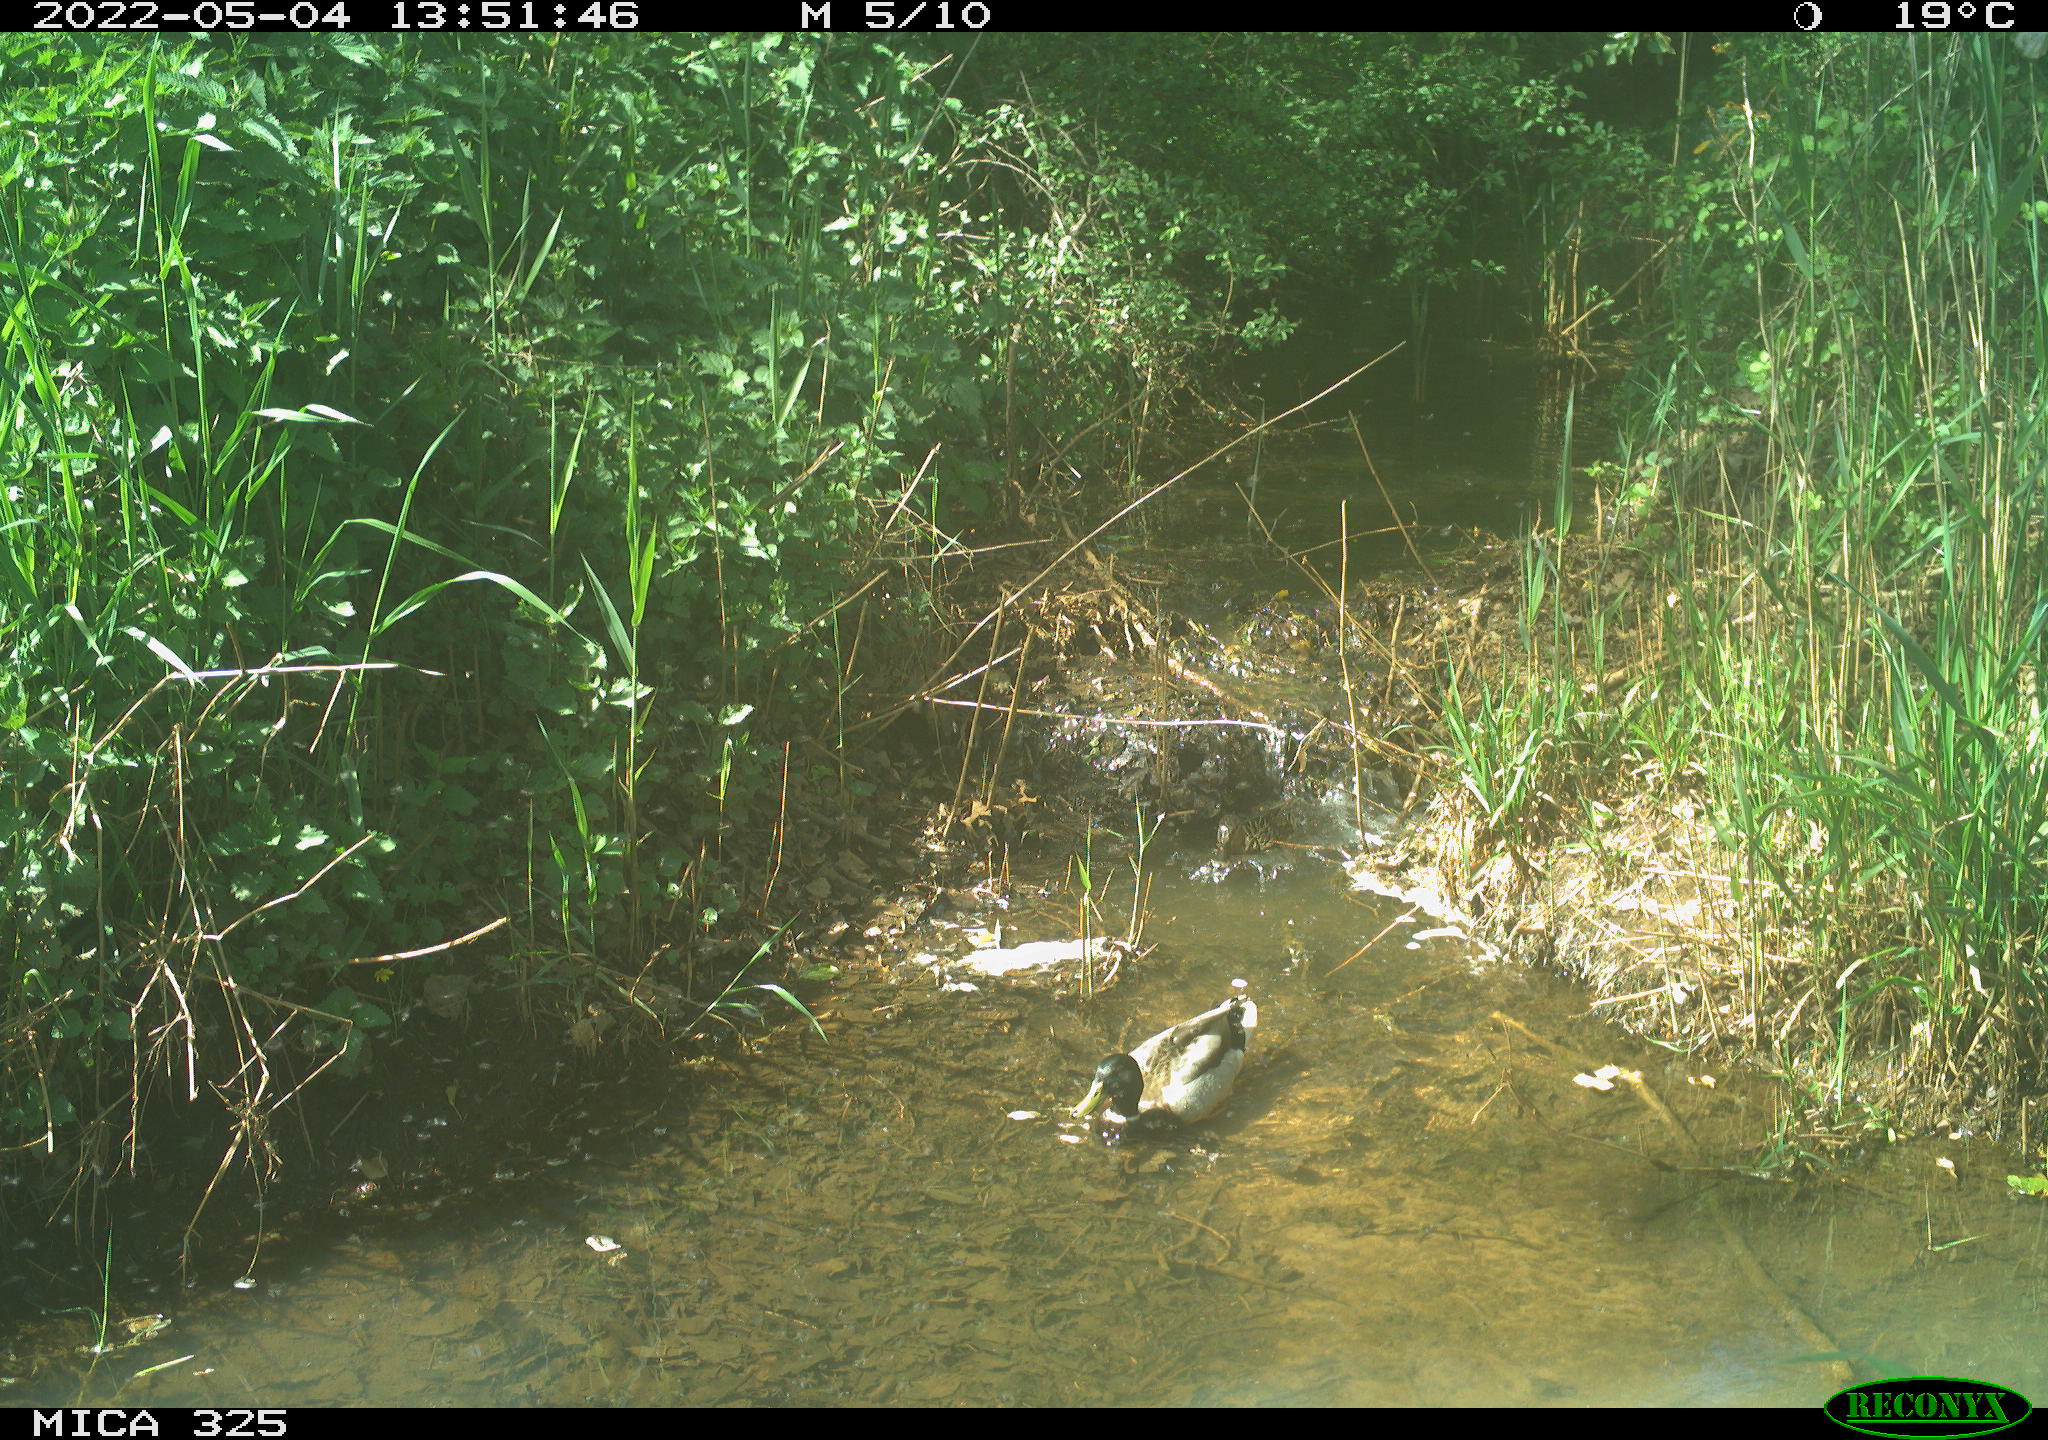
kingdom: Animalia
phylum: Chordata
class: Aves
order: Anseriformes
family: Anatidae
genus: Anas
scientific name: Anas platyrhynchos
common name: Mallard
